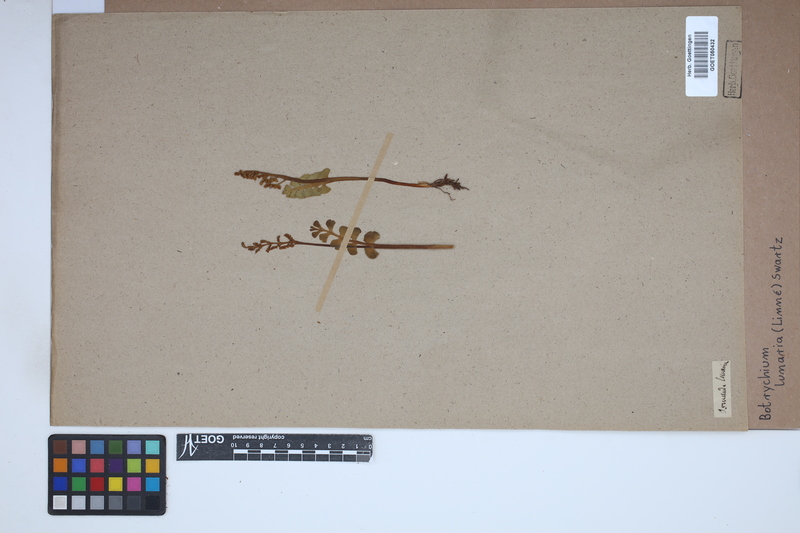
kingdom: Plantae
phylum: Tracheophyta
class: Polypodiopsida
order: Ophioglossales
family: Ophioglossaceae
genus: Botrychium
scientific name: Botrychium lunaria
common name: Moonwort
